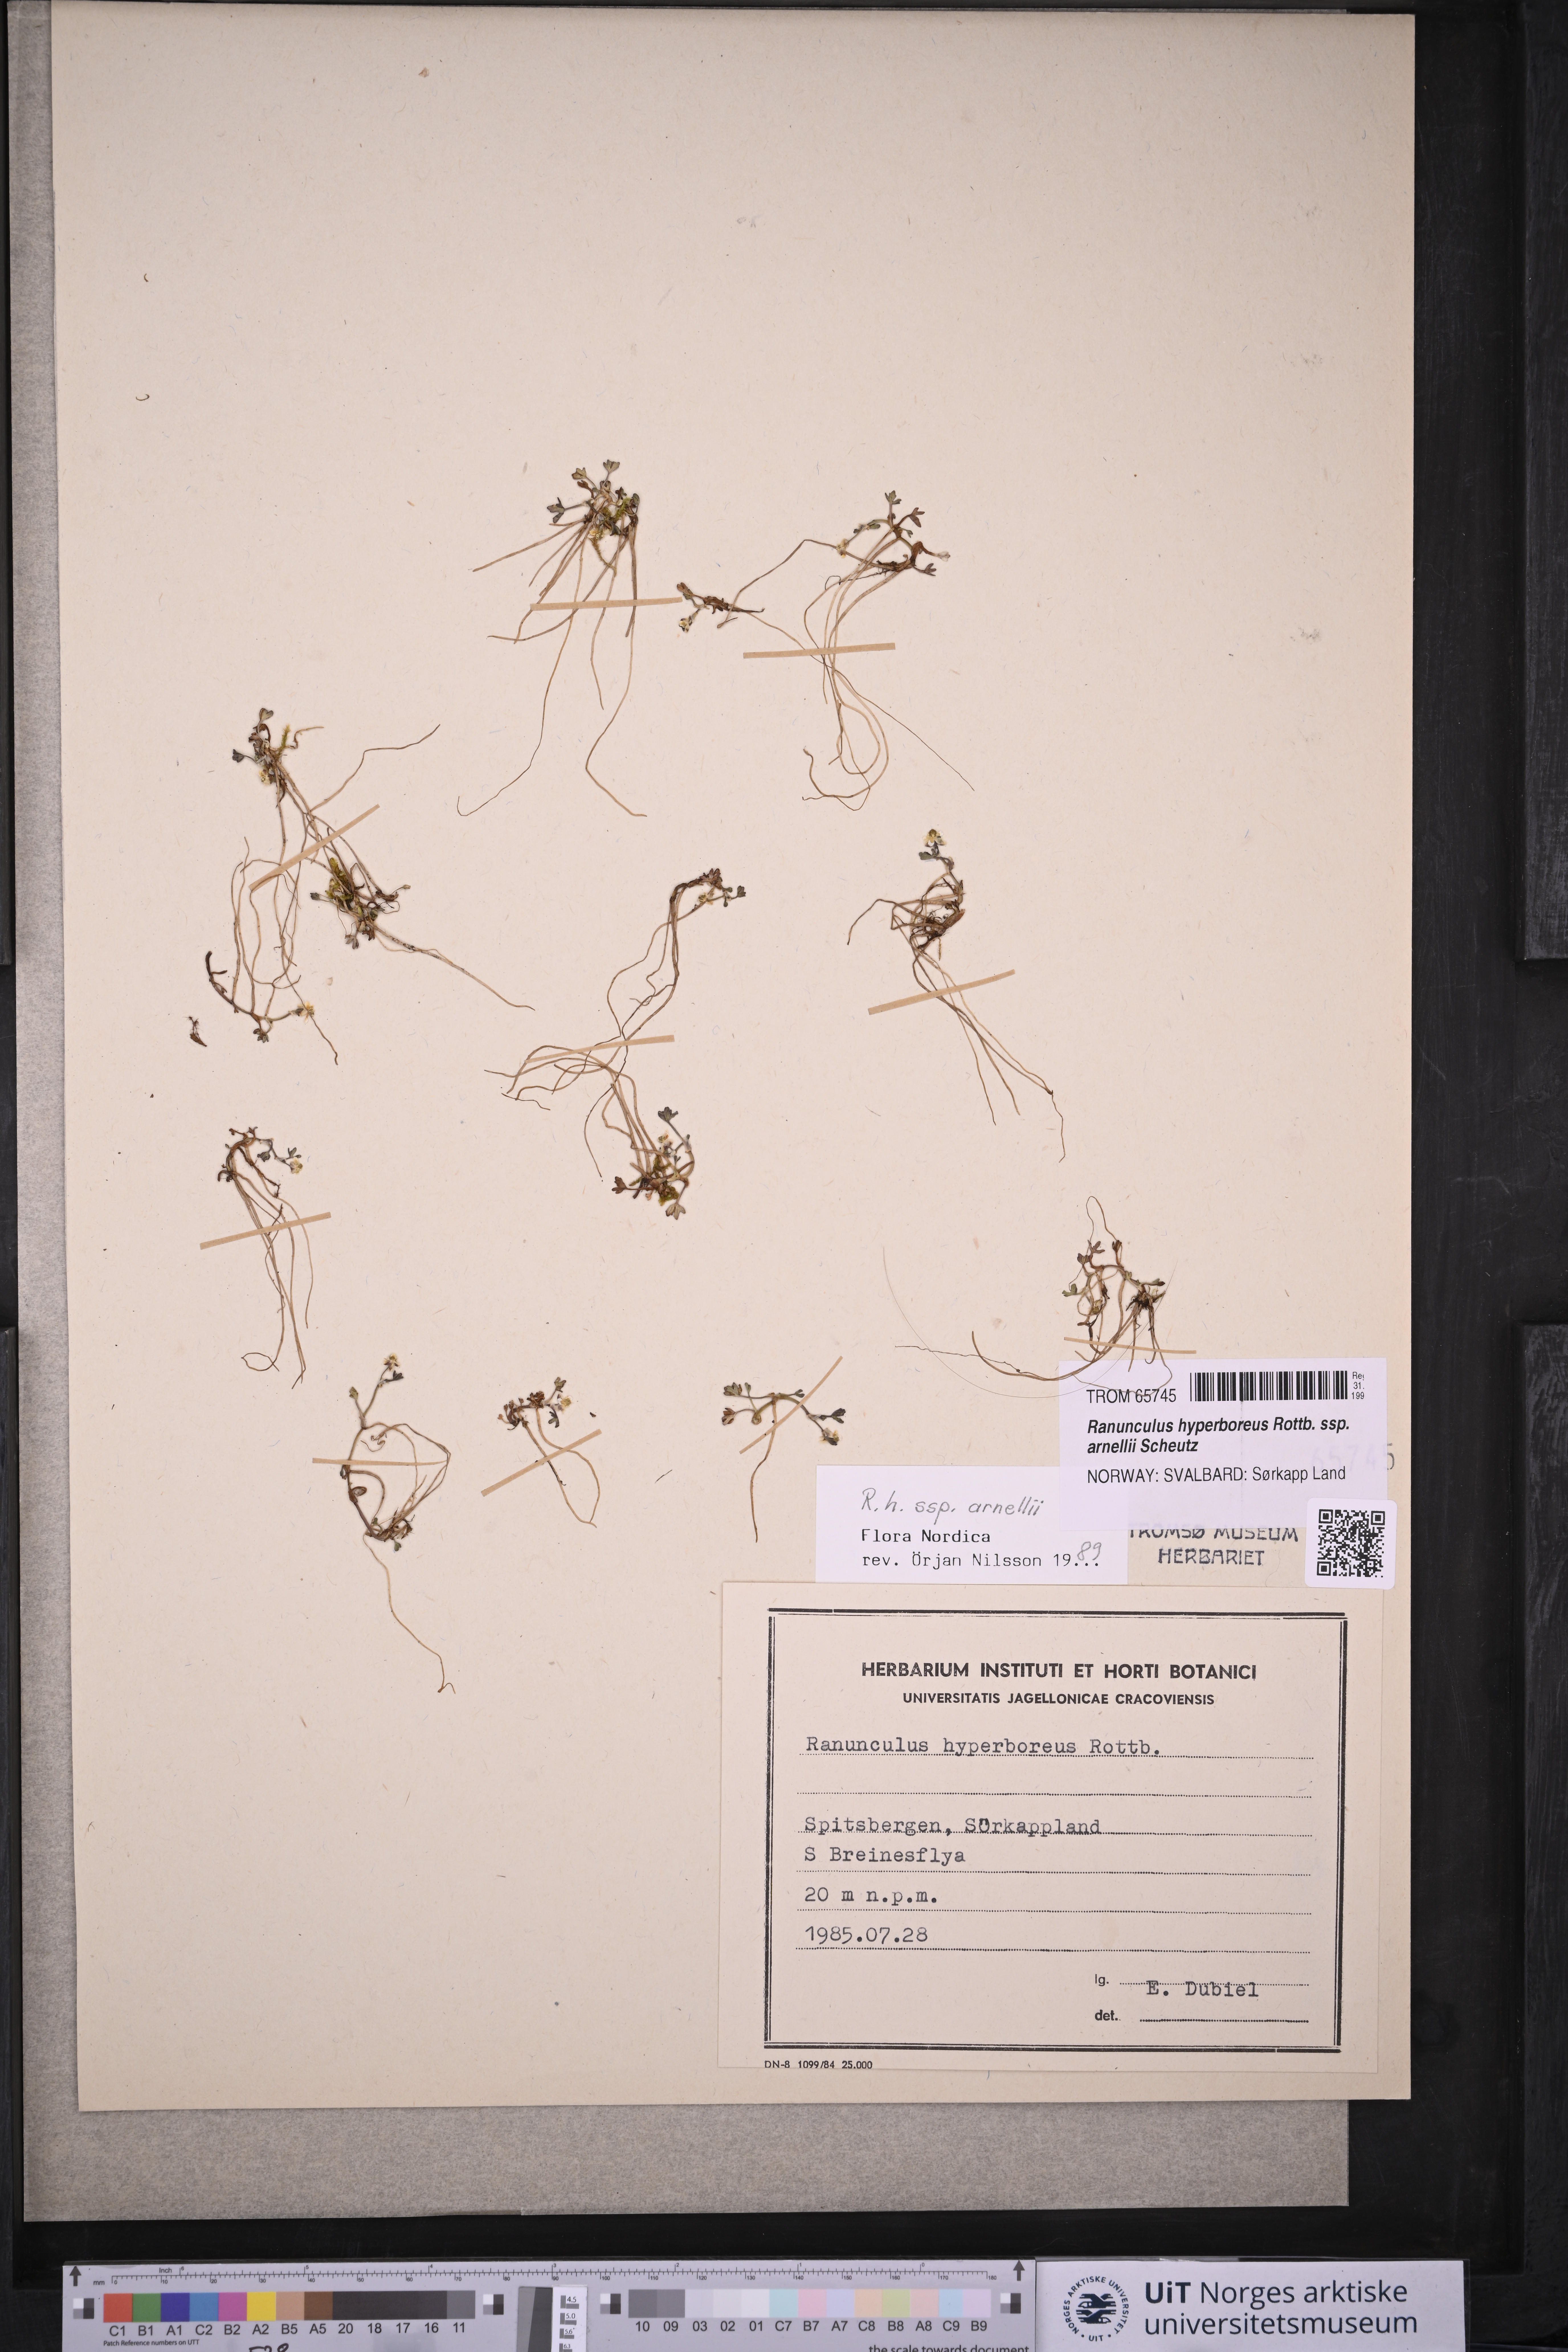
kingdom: Plantae
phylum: Tracheophyta
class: Magnoliopsida
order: Ranunculales
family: Ranunculaceae
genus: Ranunculus
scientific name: Ranunculus hyperboreus
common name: Arctic buttercup
